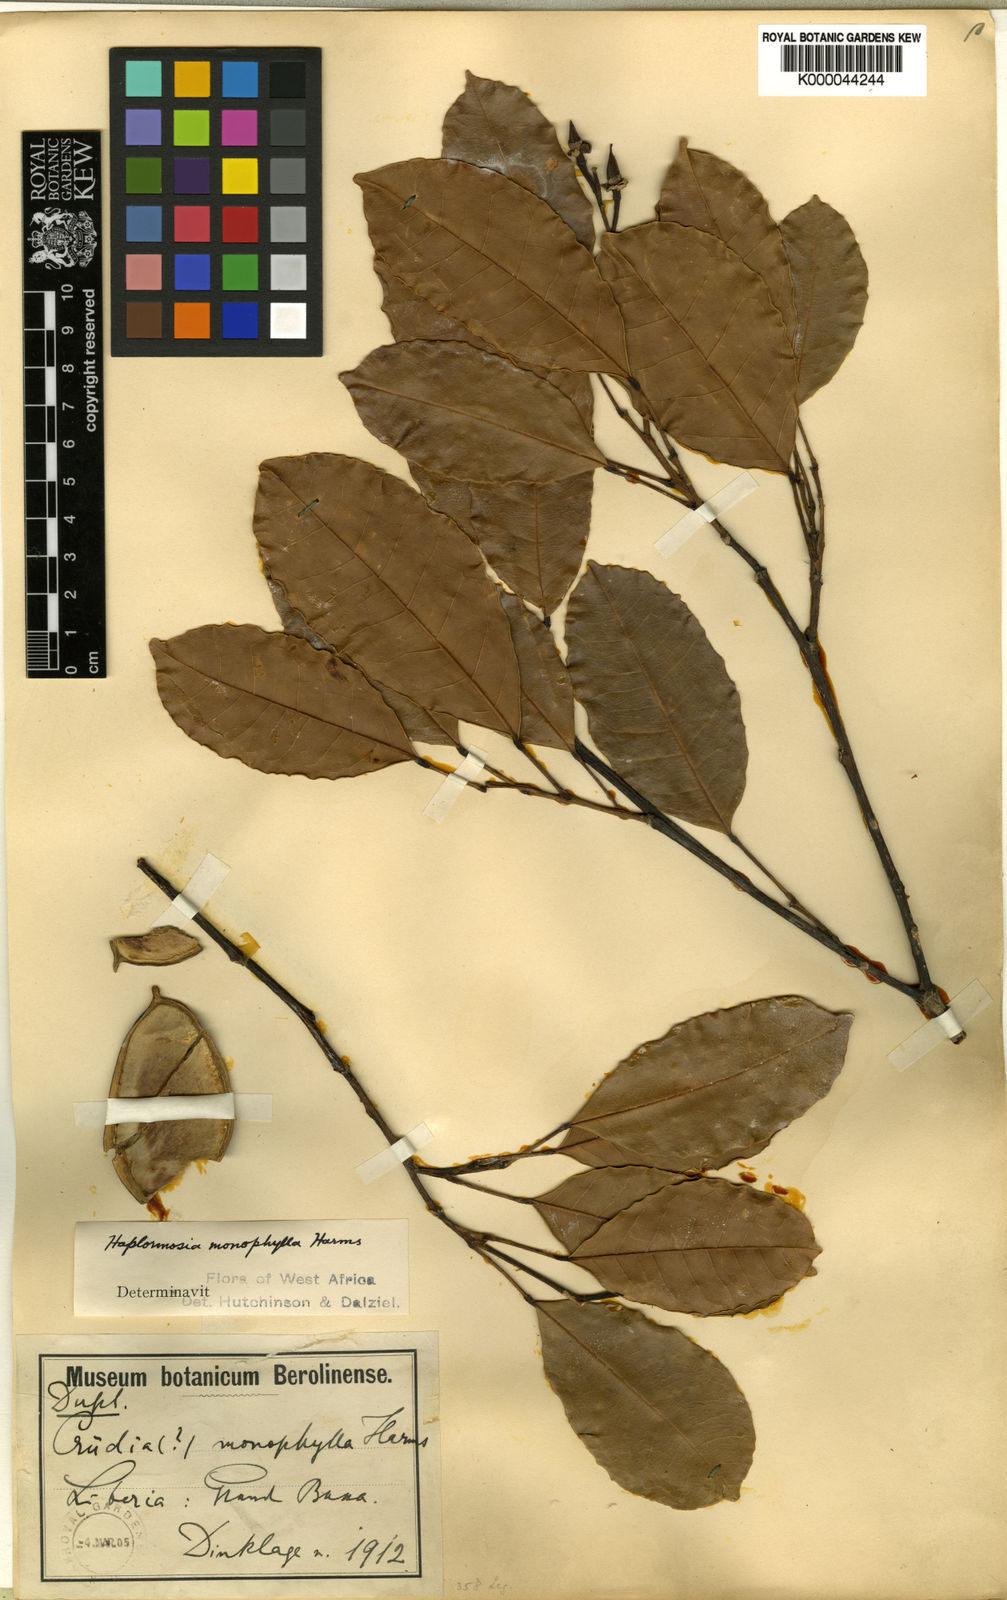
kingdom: Plantae
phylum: Tracheophyta
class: Magnoliopsida
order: Fabales
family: Fabaceae
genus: Haplormosia
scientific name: Haplormosia monophylla
